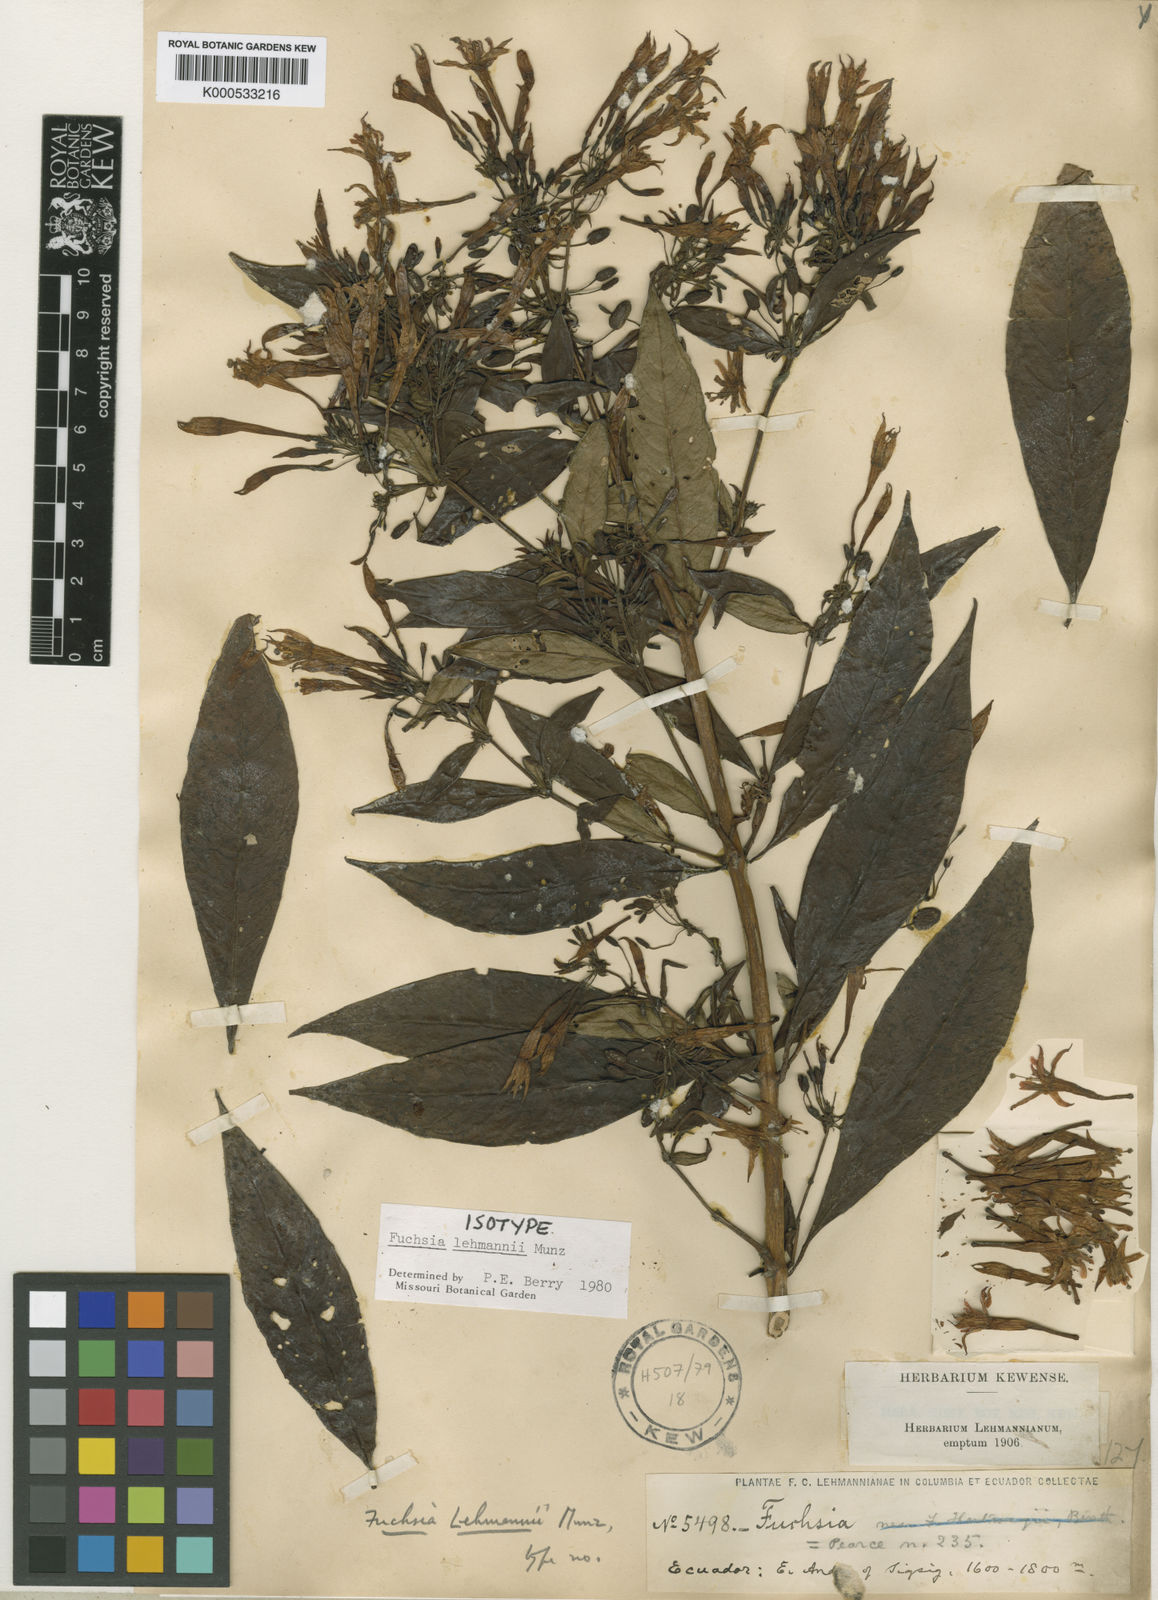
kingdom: Plantae
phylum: Tracheophyta
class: Magnoliopsida
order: Myrtales
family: Onagraceae
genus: Fuchsia
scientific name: Fuchsia lehmannii
